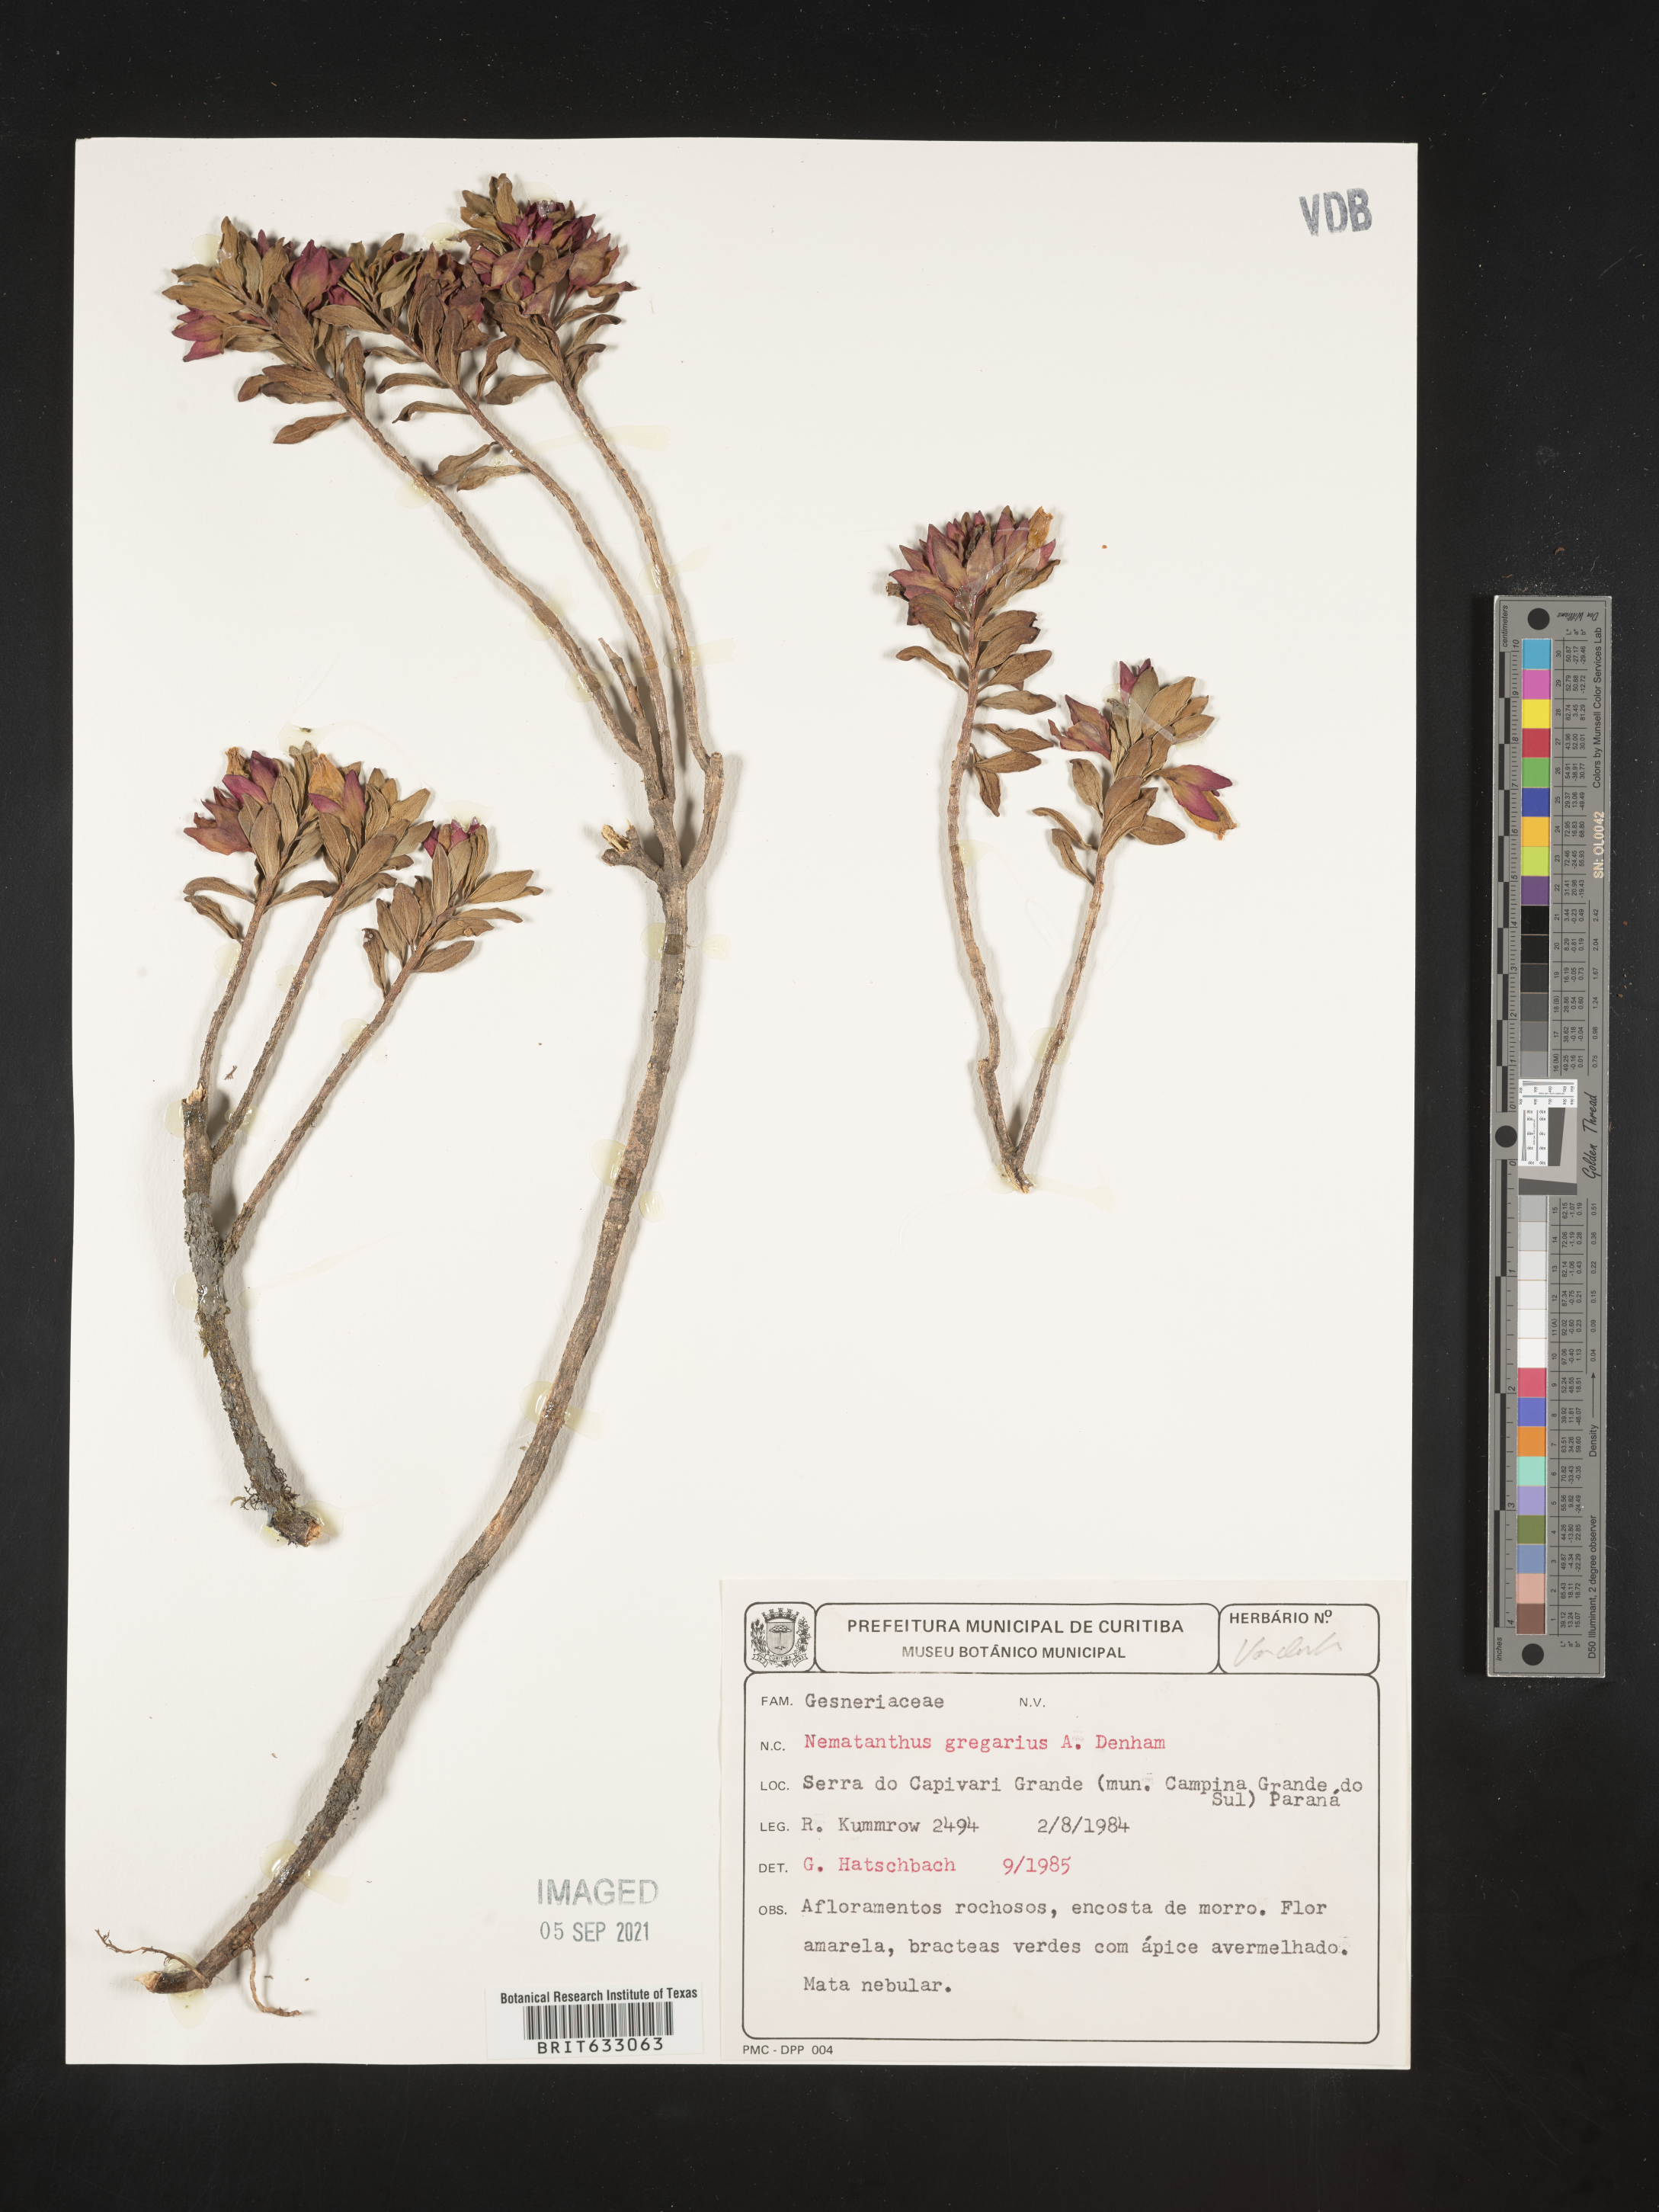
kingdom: Plantae
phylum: Tracheophyta
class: Magnoliopsida
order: Lamiales
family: Gesneriaceae
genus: Nematanthus
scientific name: Nematanthus
